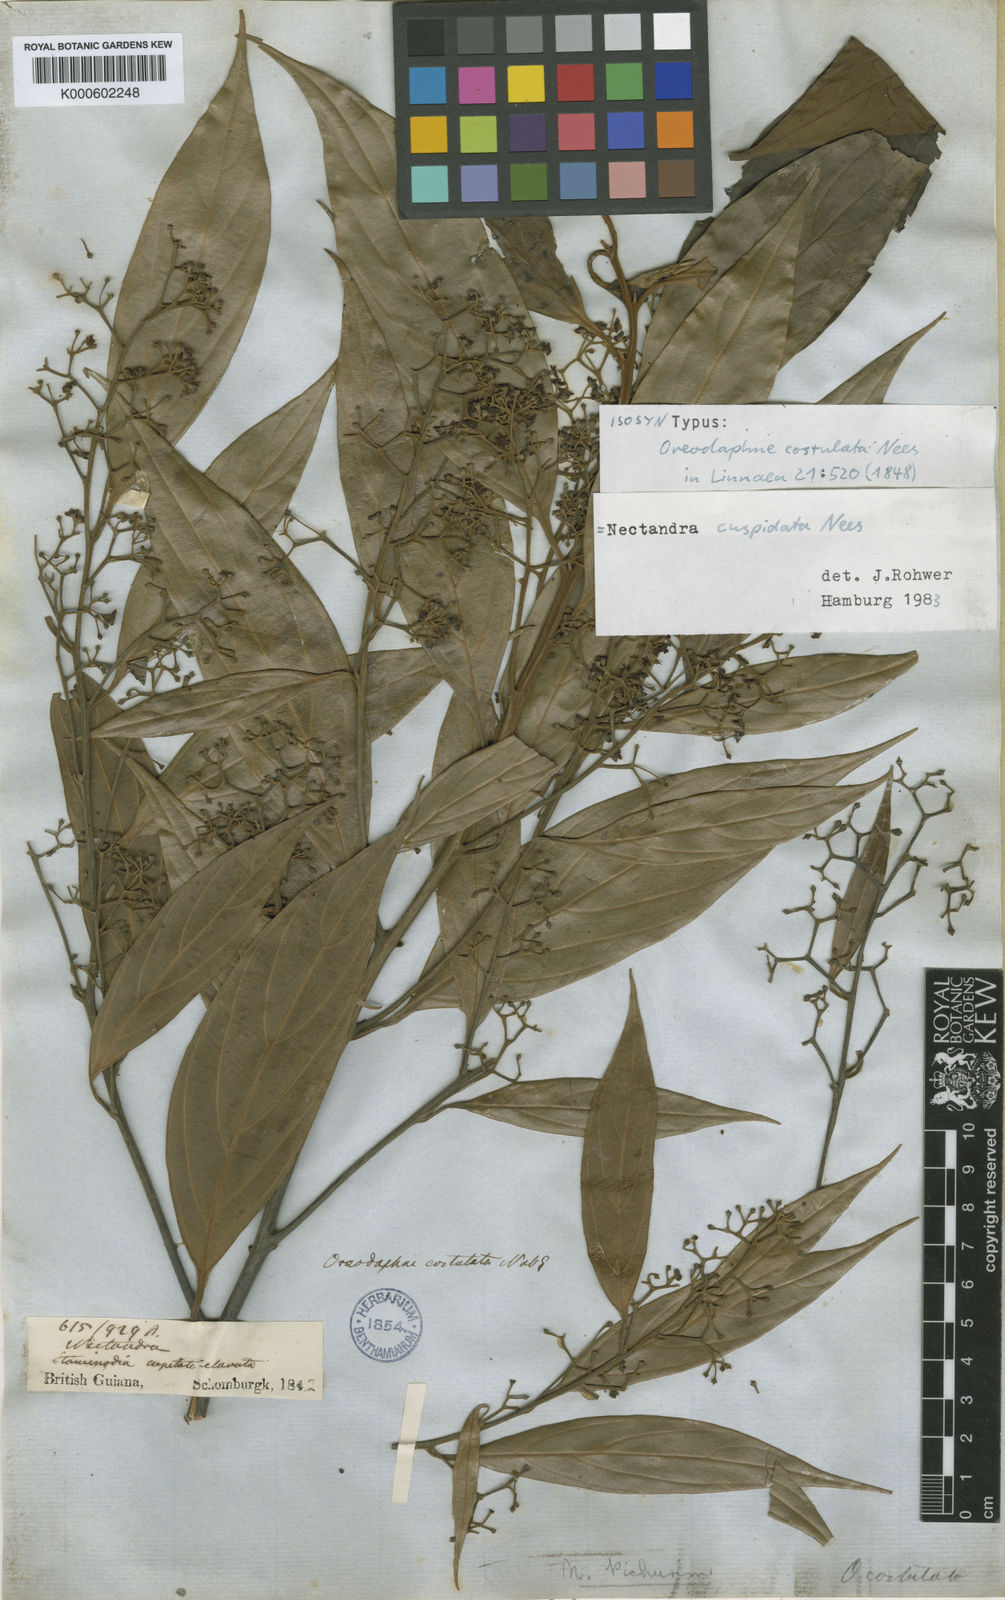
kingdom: Plantae
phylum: Tracheophyta
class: Magnoliopsida
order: Laurales
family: Lauraceae
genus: Ocotea
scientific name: Ocotea aciphylla
